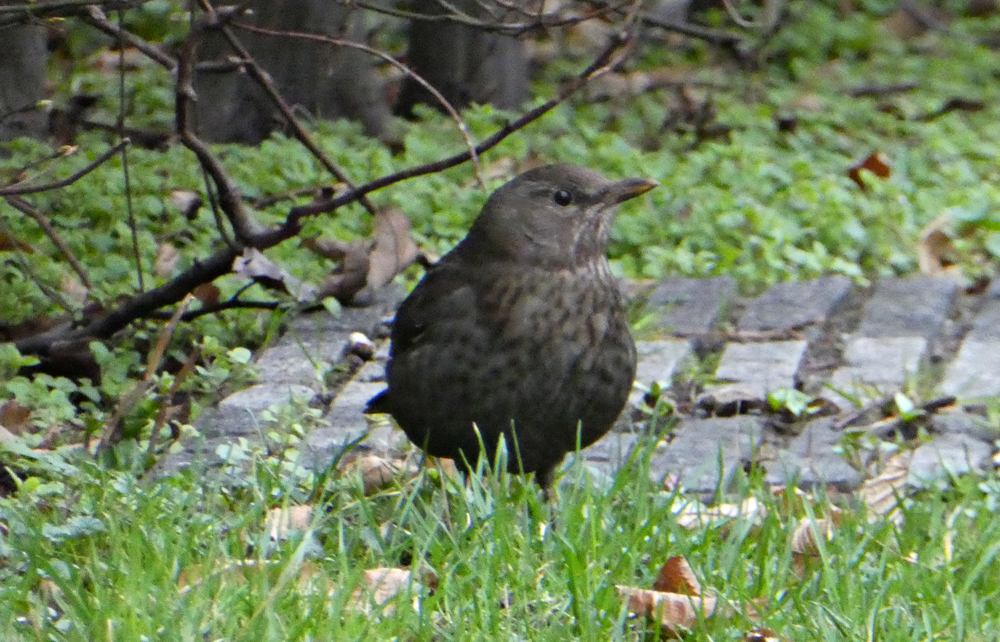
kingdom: Animalia
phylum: Chordata
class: Aves
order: Passeriformes
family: Turdidae
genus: Turdus
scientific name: Turdus merula
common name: Common blackbird
